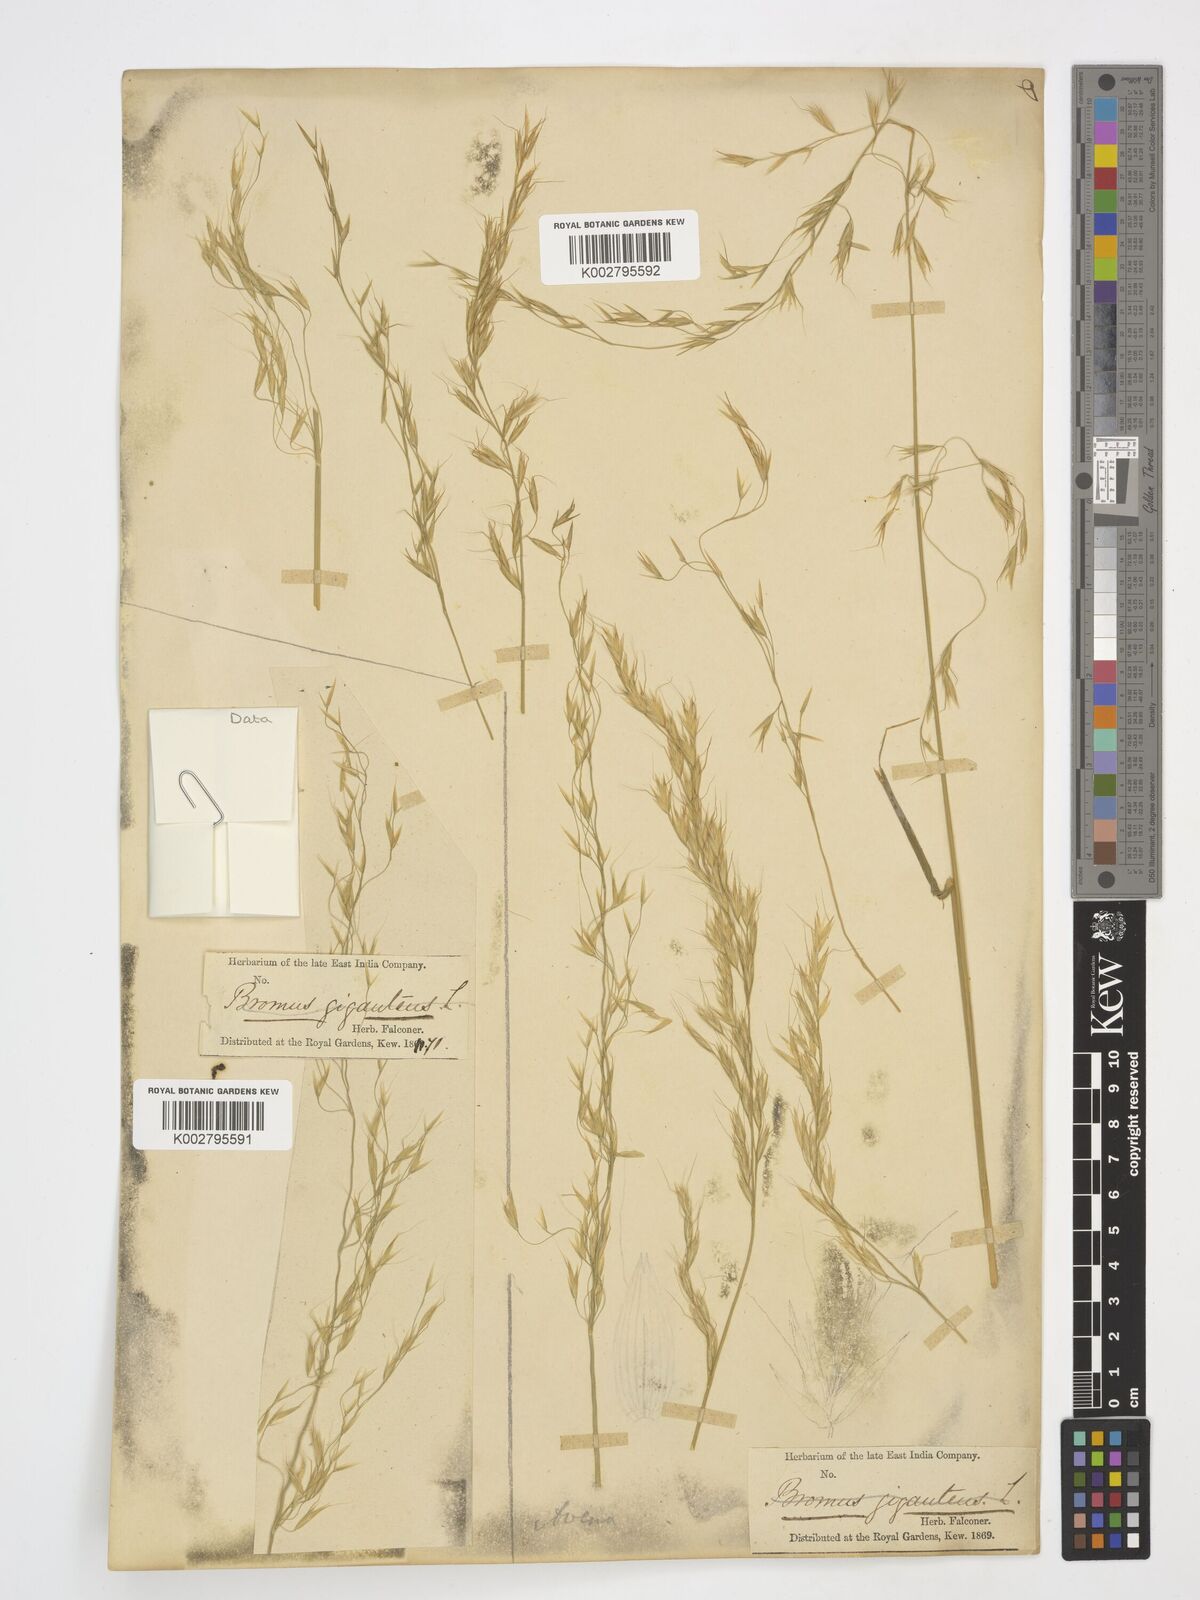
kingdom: Plantae
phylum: Tracheophyta
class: Liliopsida
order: Poales
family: Poaceae
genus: Helictotrichon
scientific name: Helictotrichon
